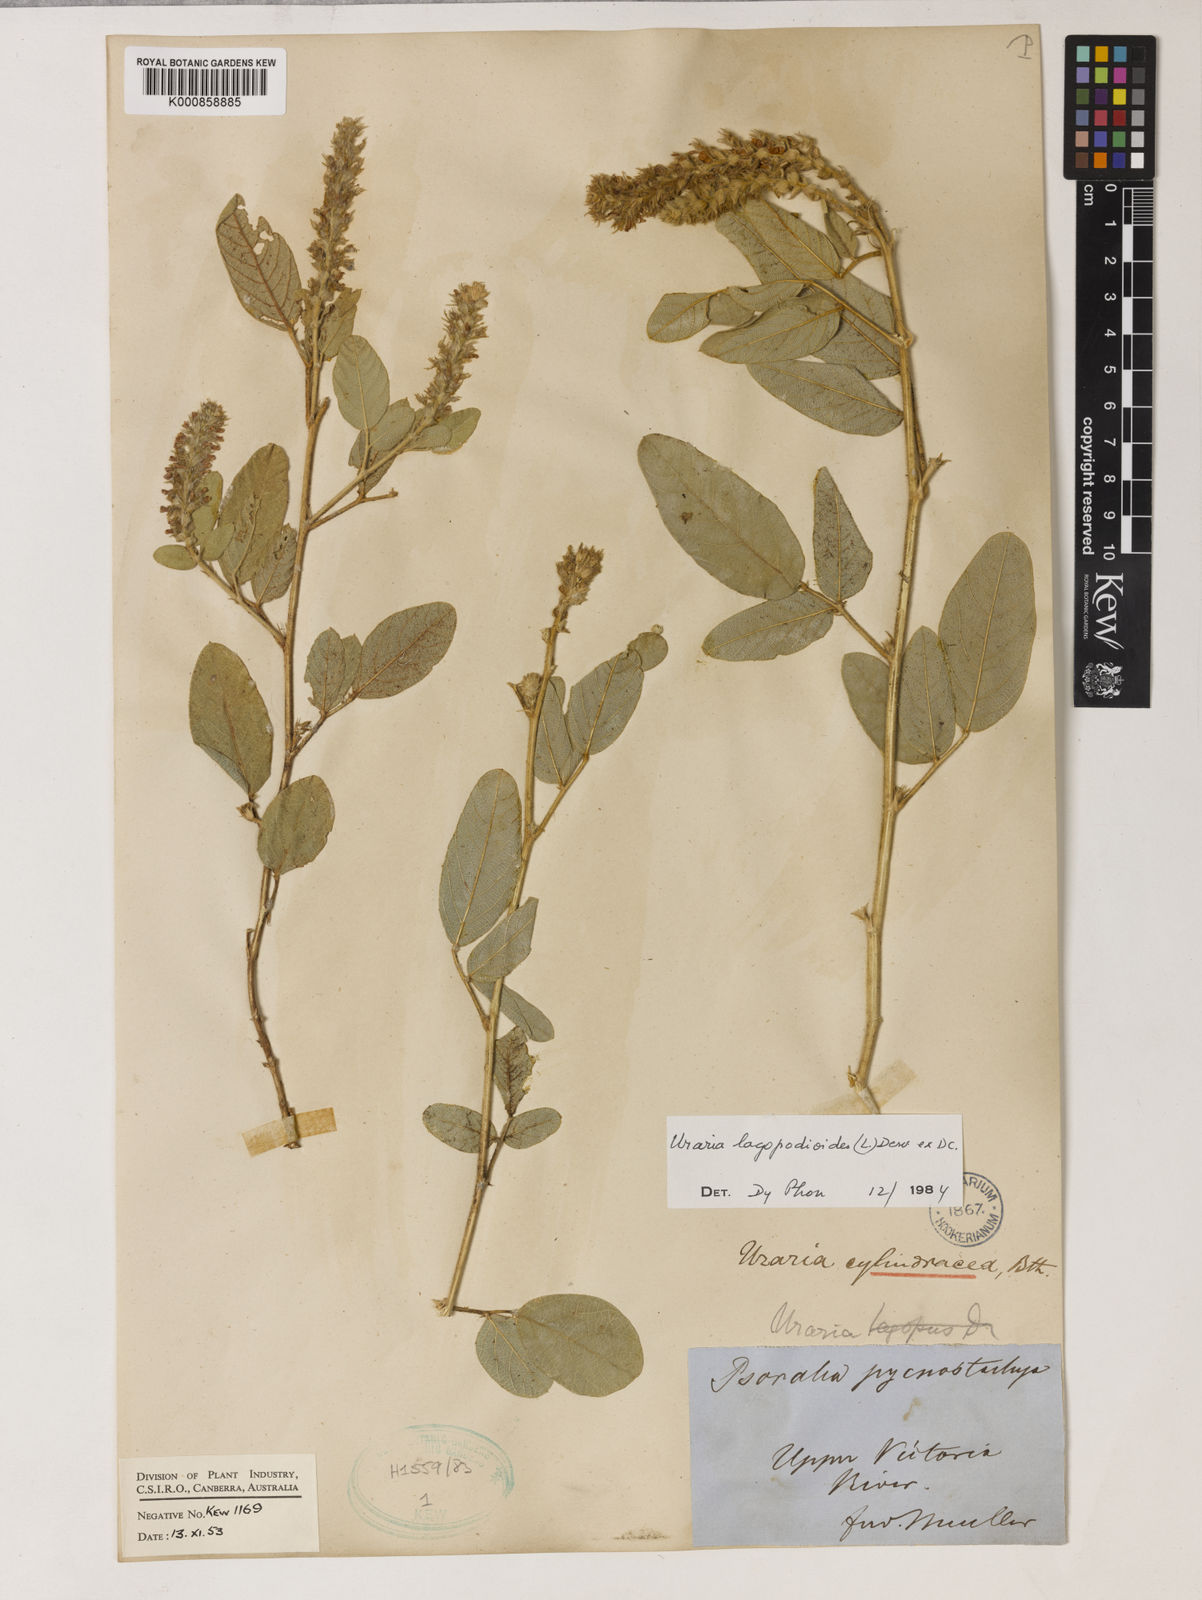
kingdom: Plantae
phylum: Tracheophyta
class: Magnoliopsida
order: Fabales
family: Fabaceae
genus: Uraria
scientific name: Uraria lagopodioides
